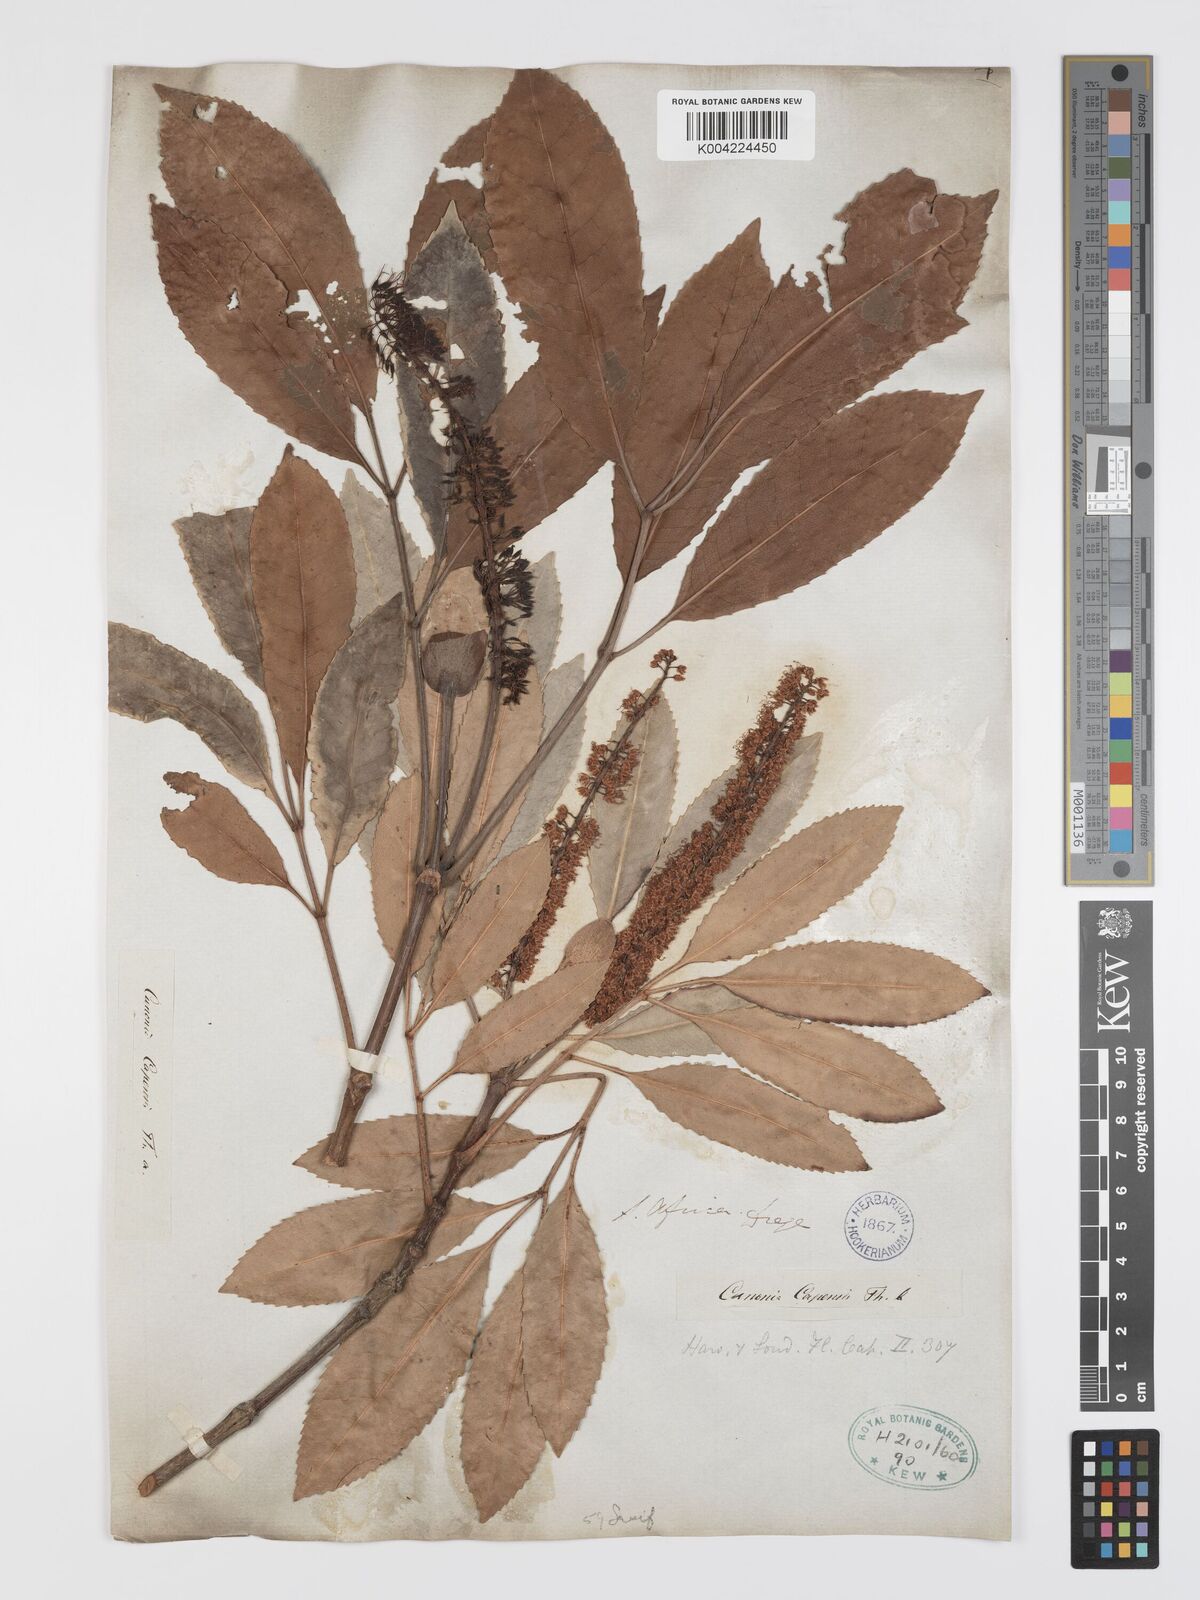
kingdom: Plantae
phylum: Tracheophyta
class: Magnoliopsida
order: Oxalidales
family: Cunoniaceae
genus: Cunonia
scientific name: Cunonia capensis
